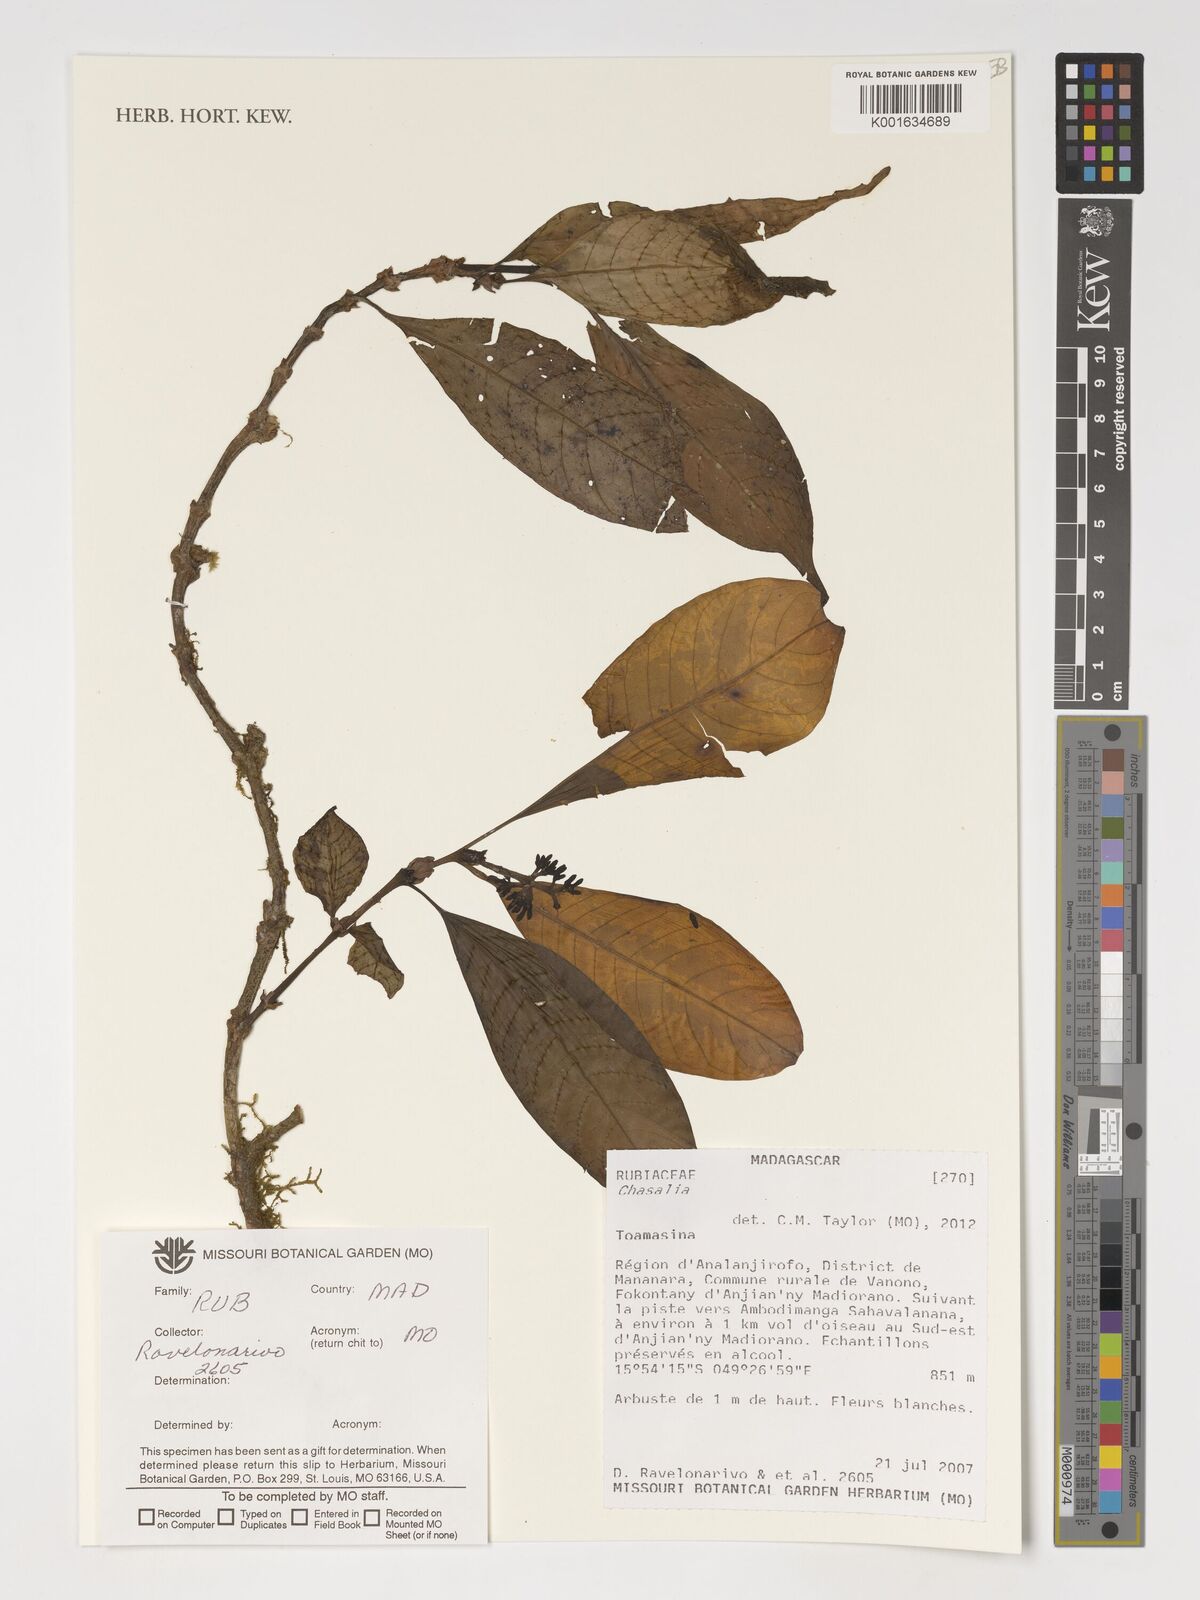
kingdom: Plantae
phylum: Tracheophyta
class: Magnoliopsida
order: Gentianales
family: Rubiaceae
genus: Chassalia
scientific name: Chassalia
